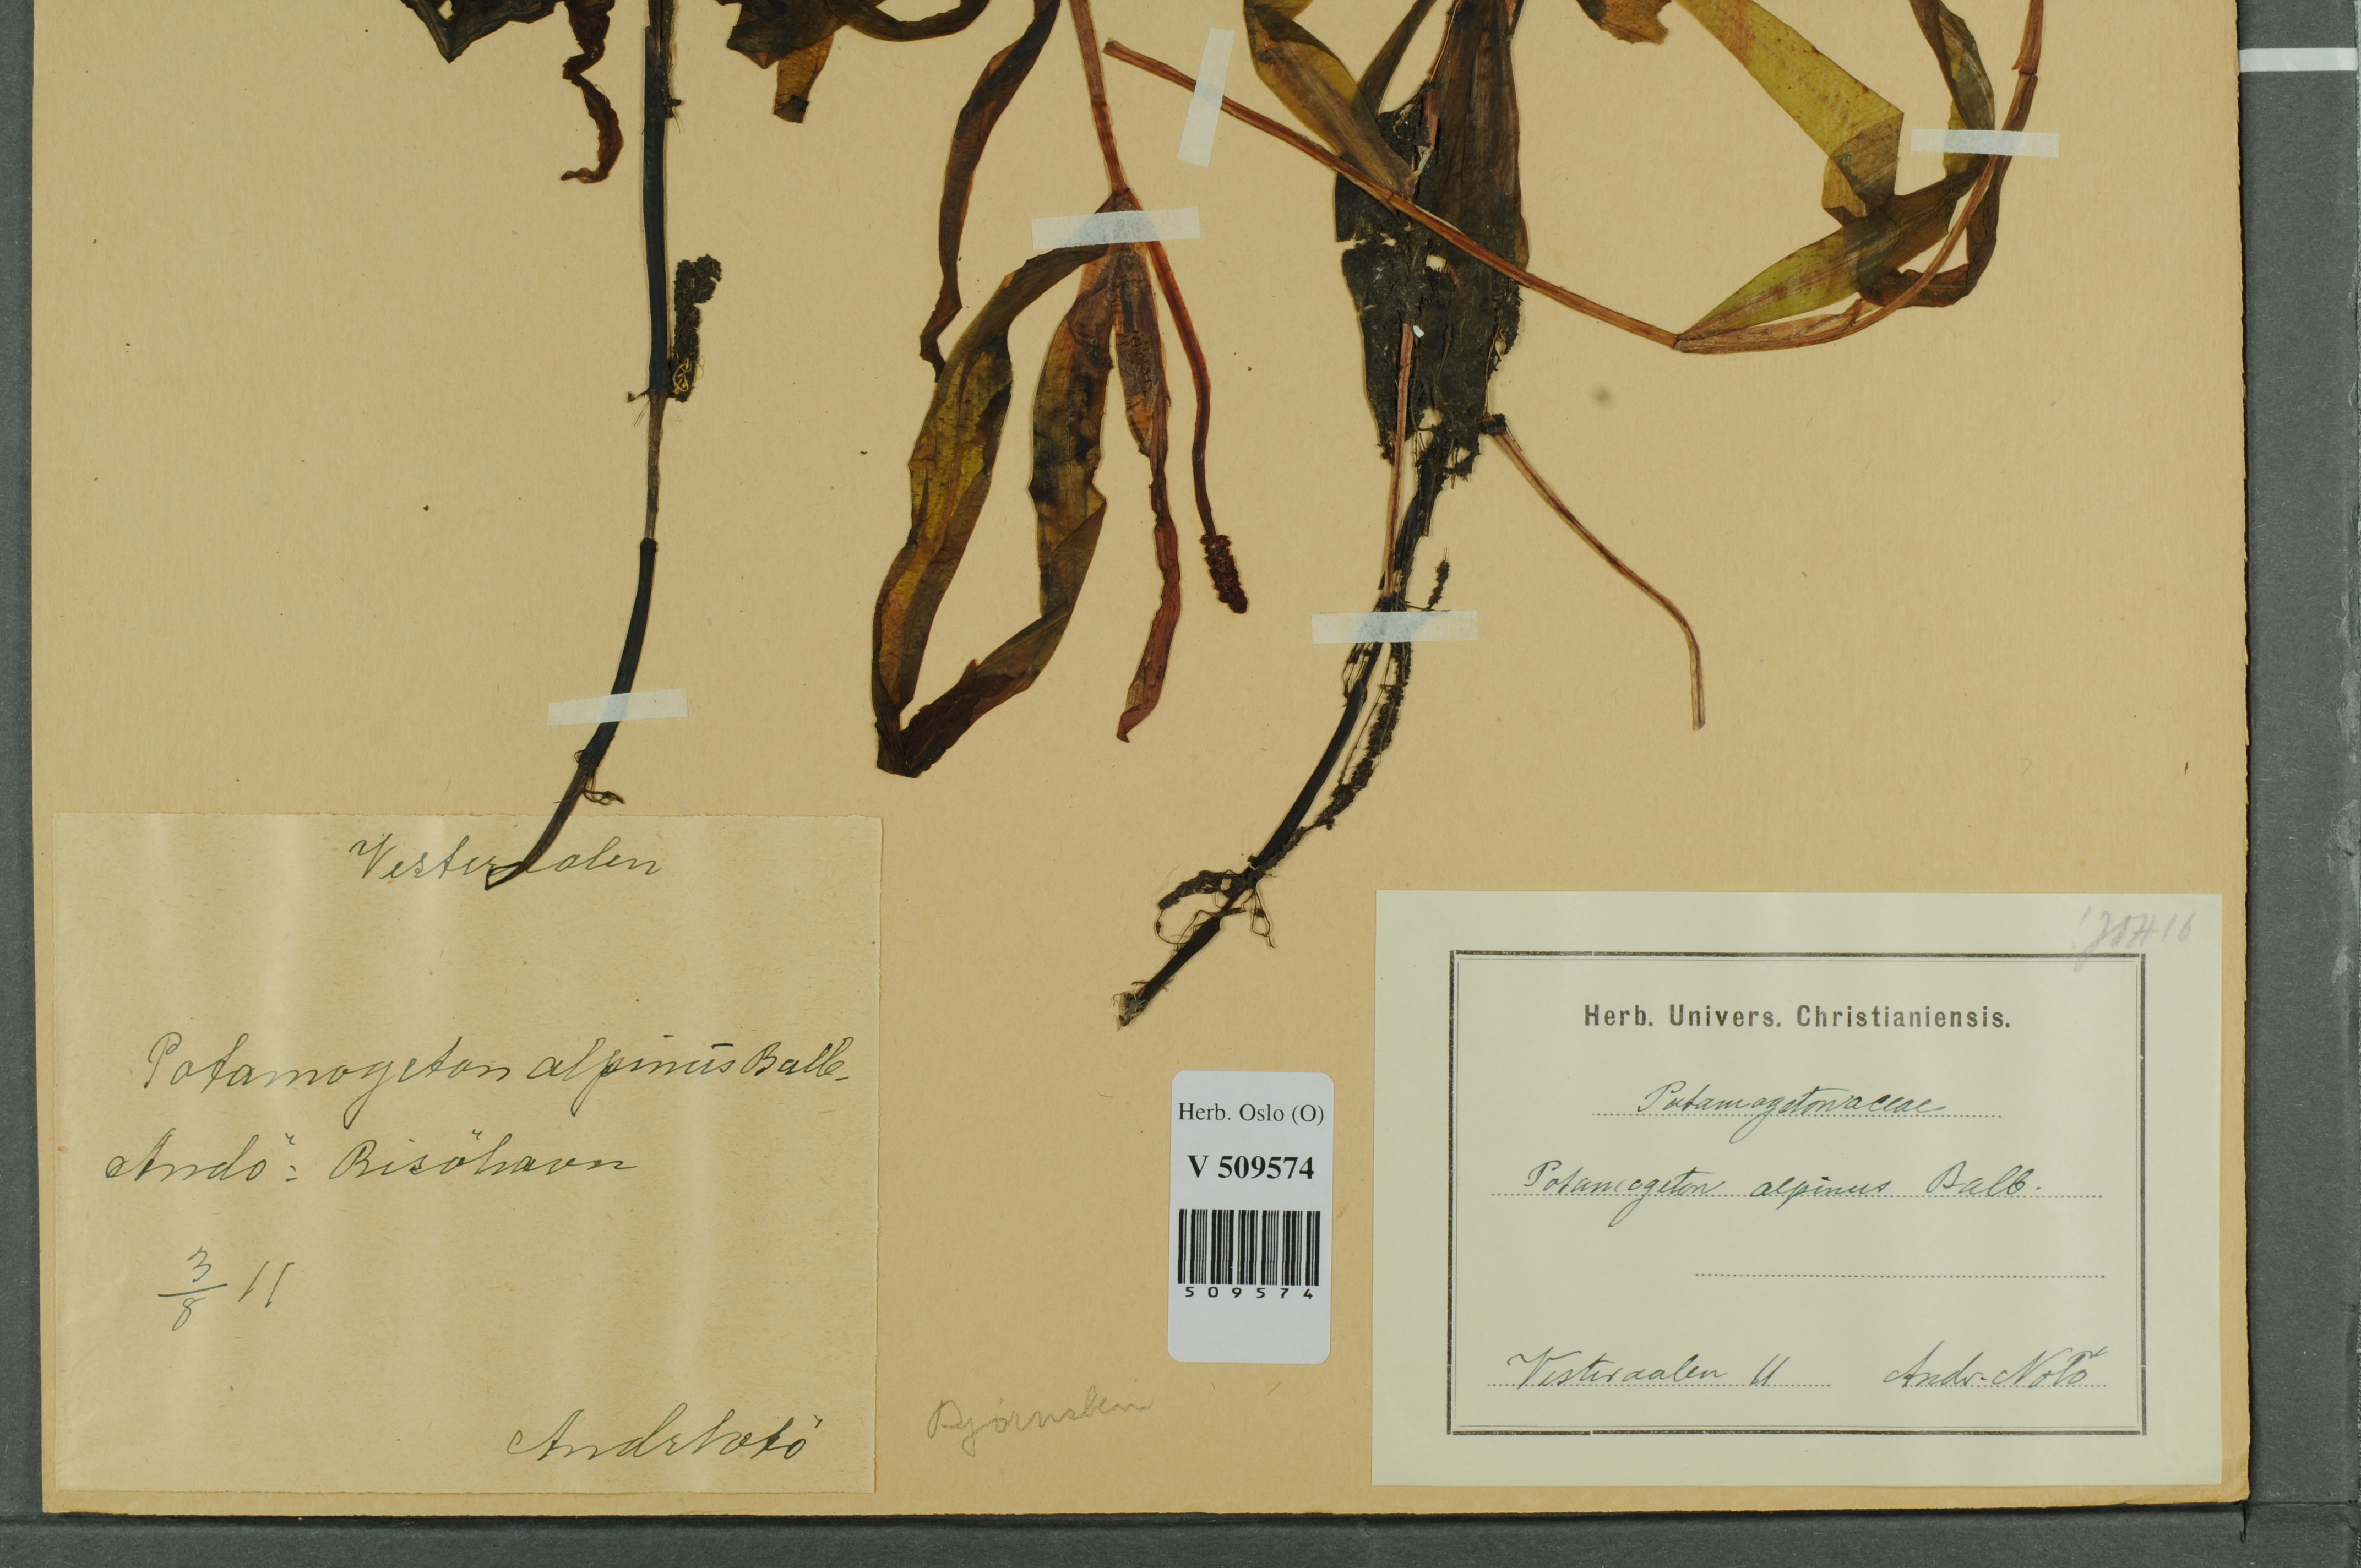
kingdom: Plantae
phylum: Tracheophyta
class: Liliopsida
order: Alismatales
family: Potamogetonaceae
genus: Potamogeton
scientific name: Potamogeton alpinus
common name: Red pondweed
